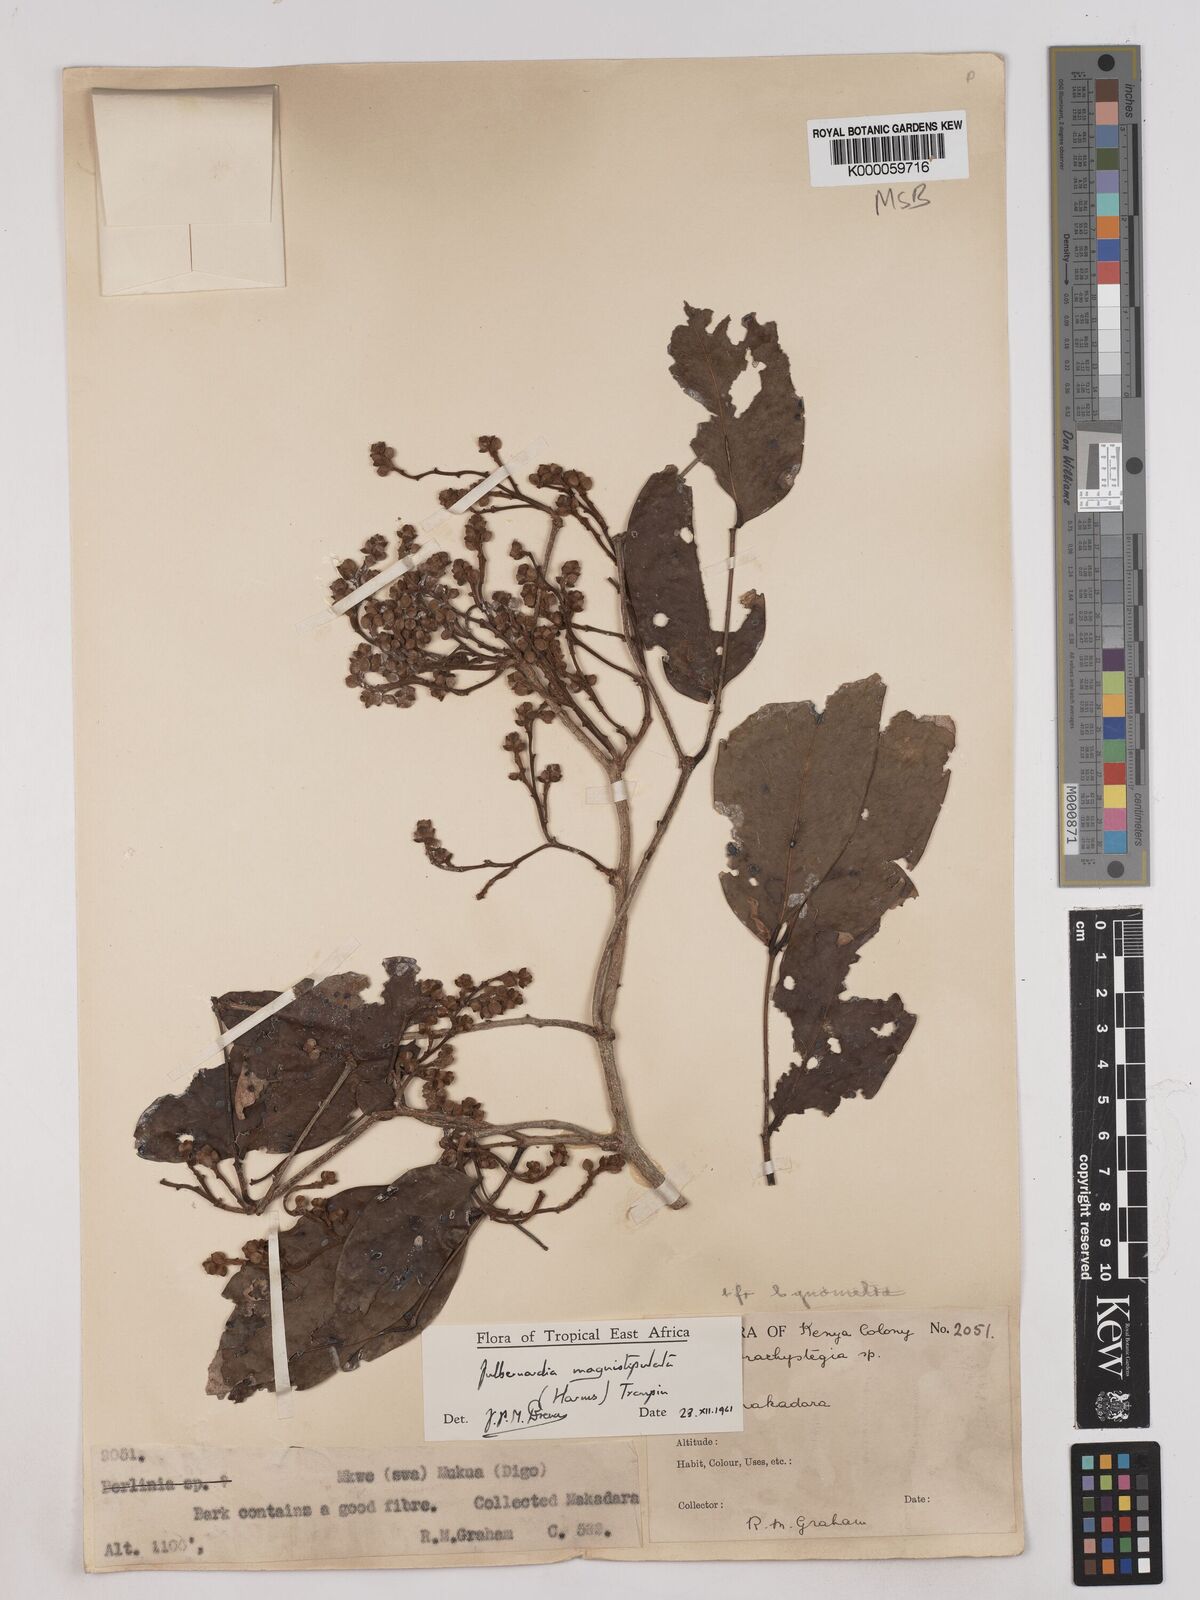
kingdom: Plantae
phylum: Tracheophyta
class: Magnoliopsida
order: Fabales
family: Fabaceae
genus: Julbernardia
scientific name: Julbernardia magnistipulata
